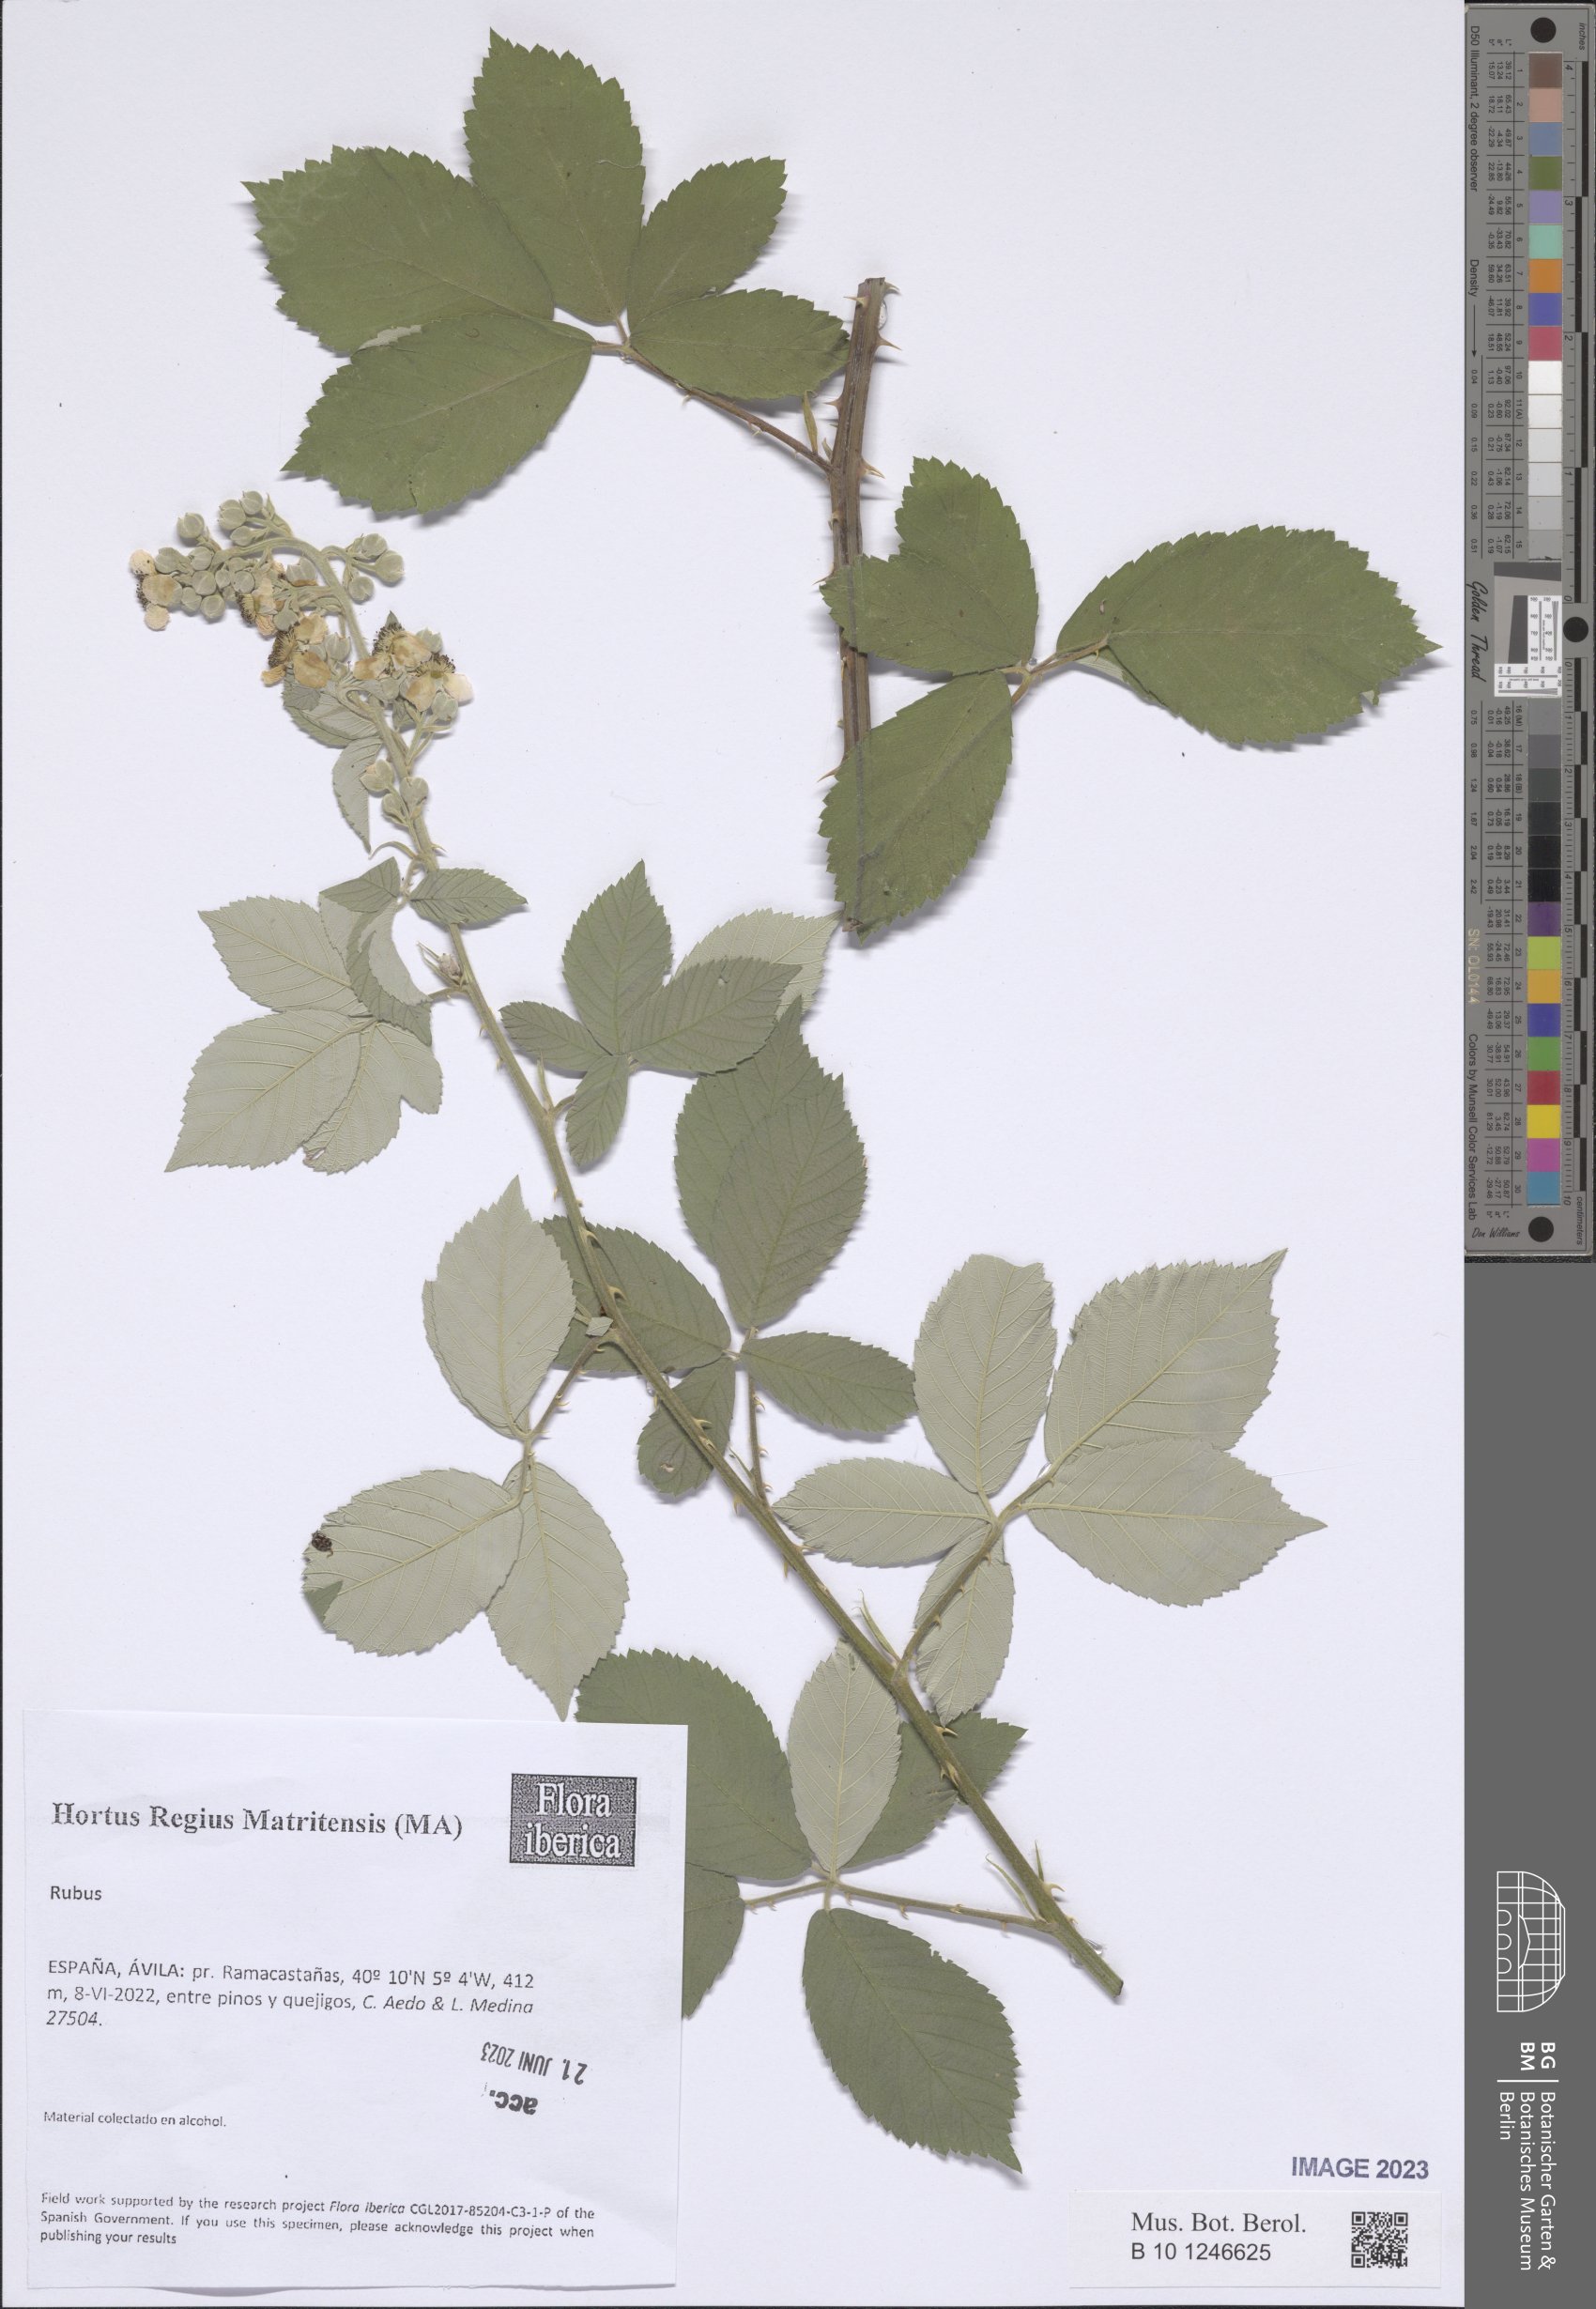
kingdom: Plantae
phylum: Tracheophyta
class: Magnoliopsida
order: Rosales
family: Rosaceae
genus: Rubus
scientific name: Rubus
